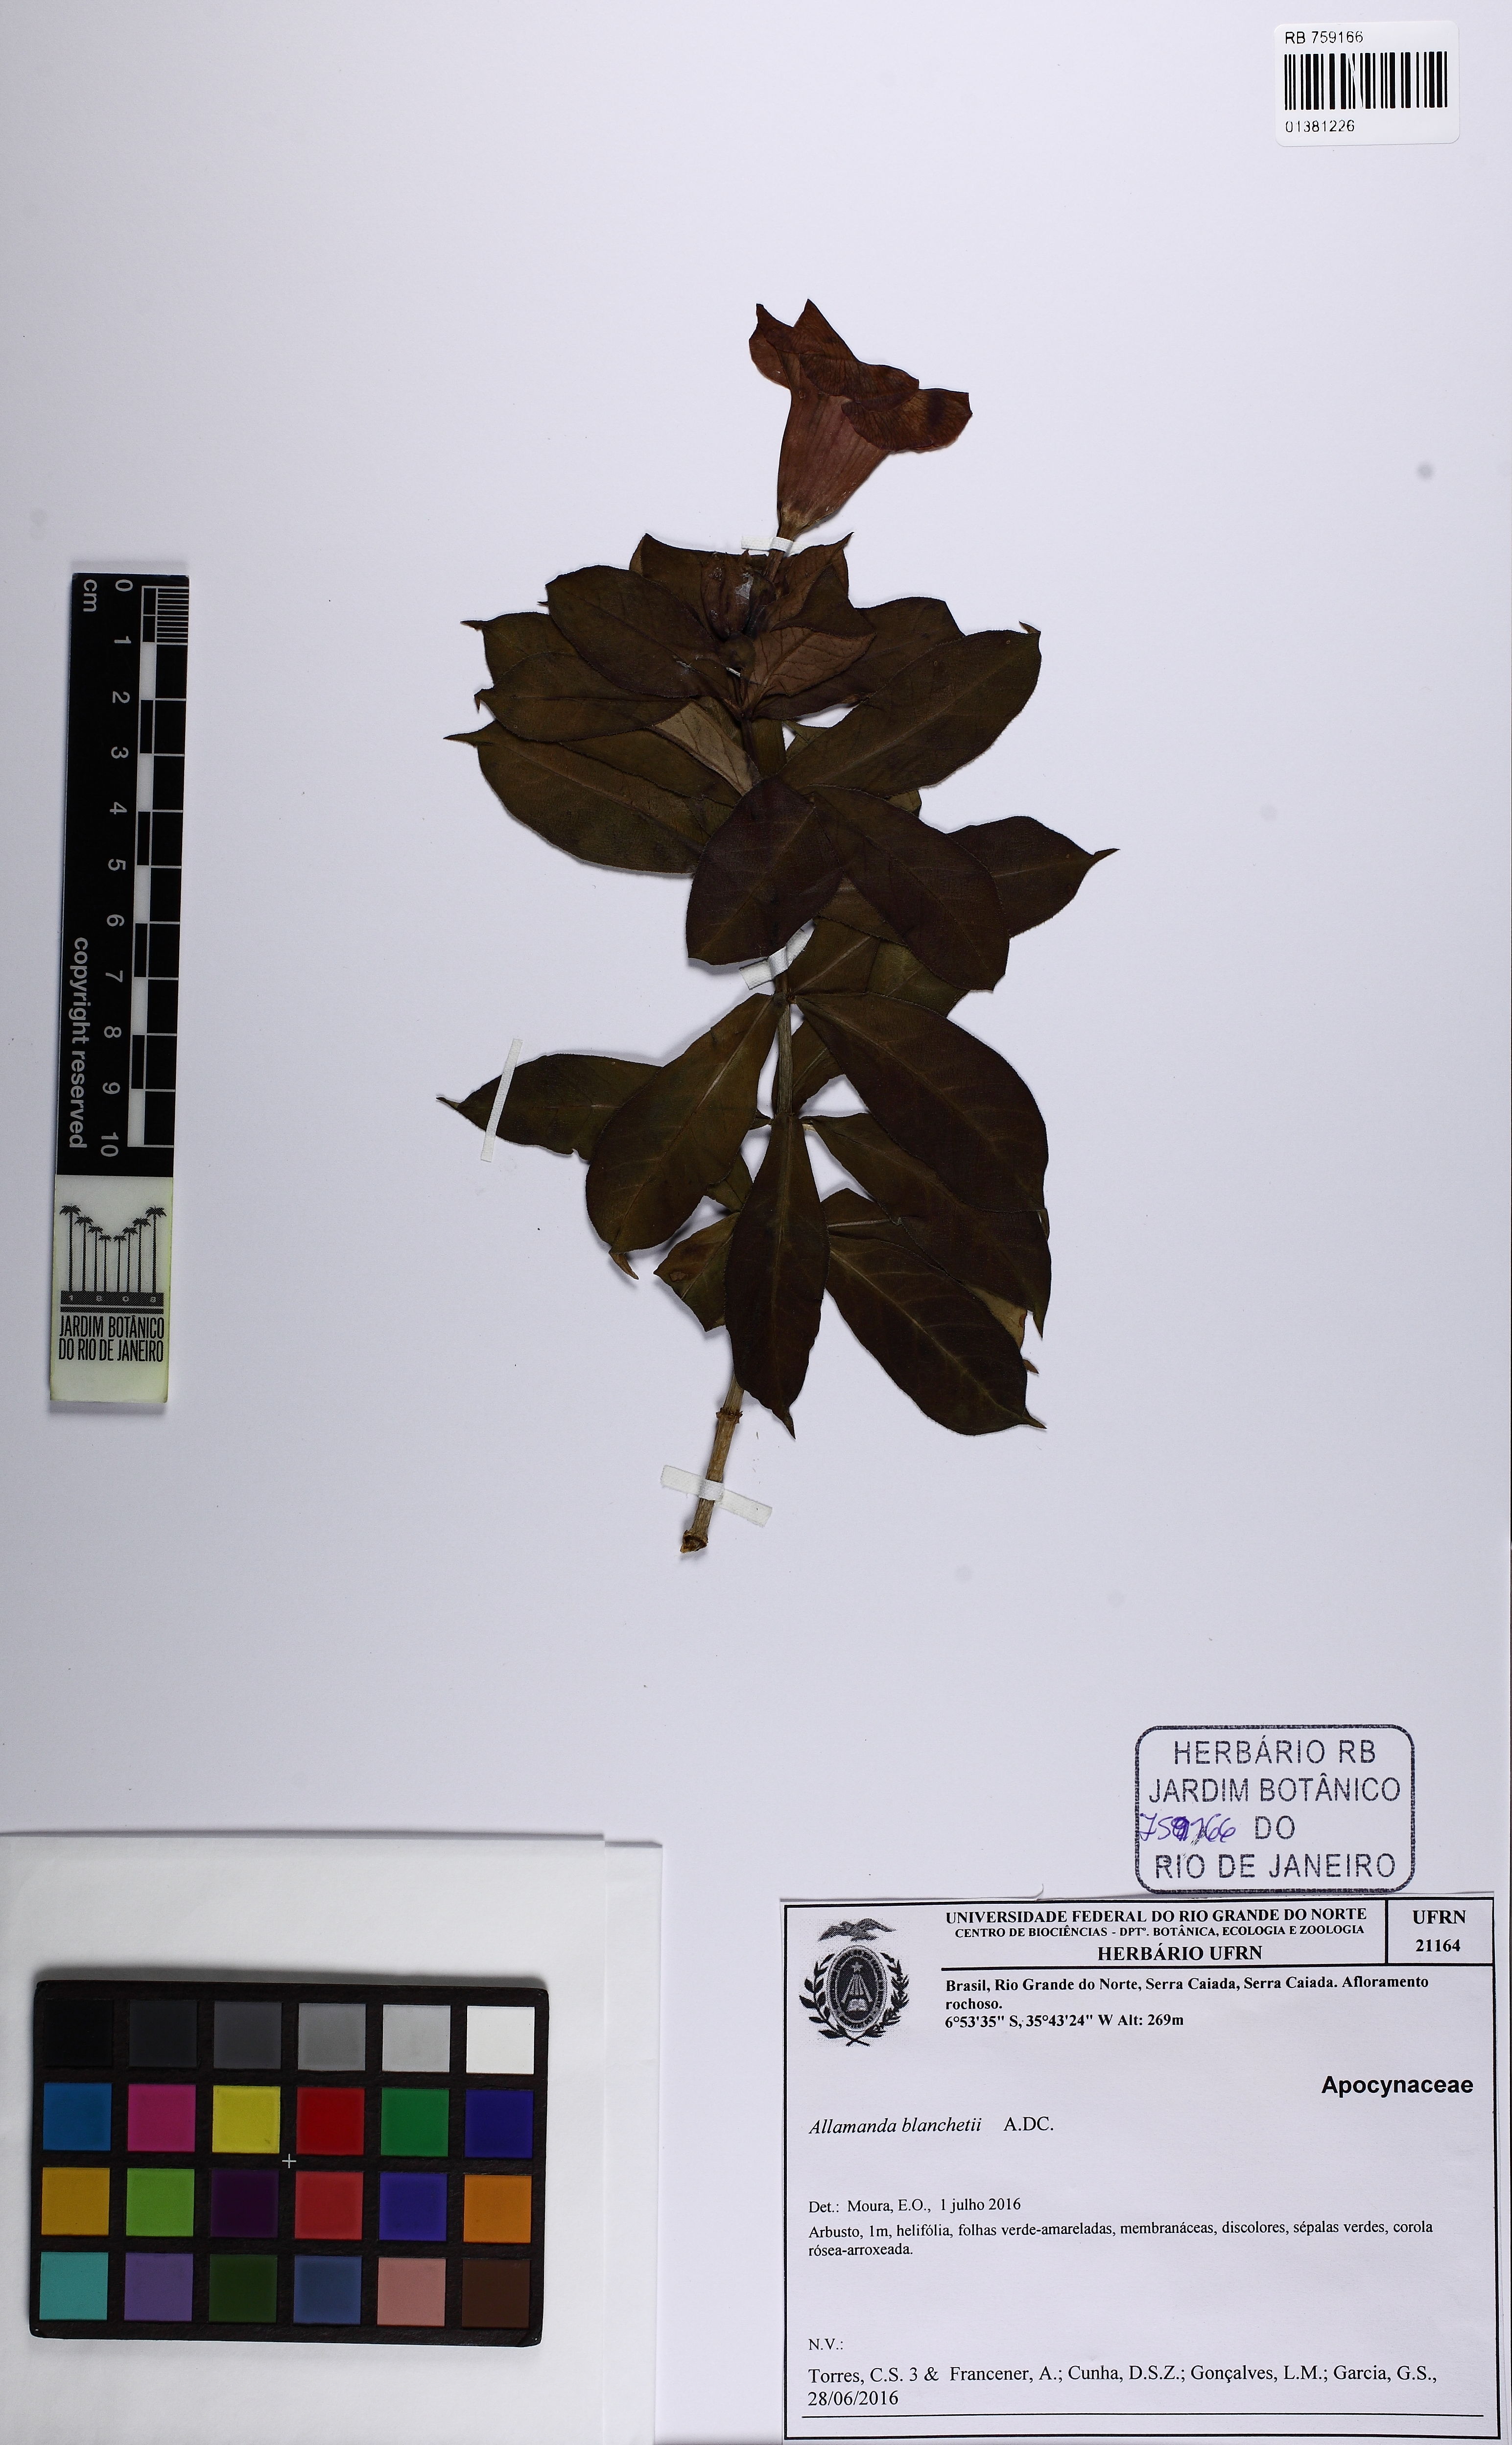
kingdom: Plantae
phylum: Tracheophyta
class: Magnoliopsida
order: Gentianales
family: Apocynaceae
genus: Allamanda
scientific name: Allamanda blanchetii
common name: Purple allamanda
